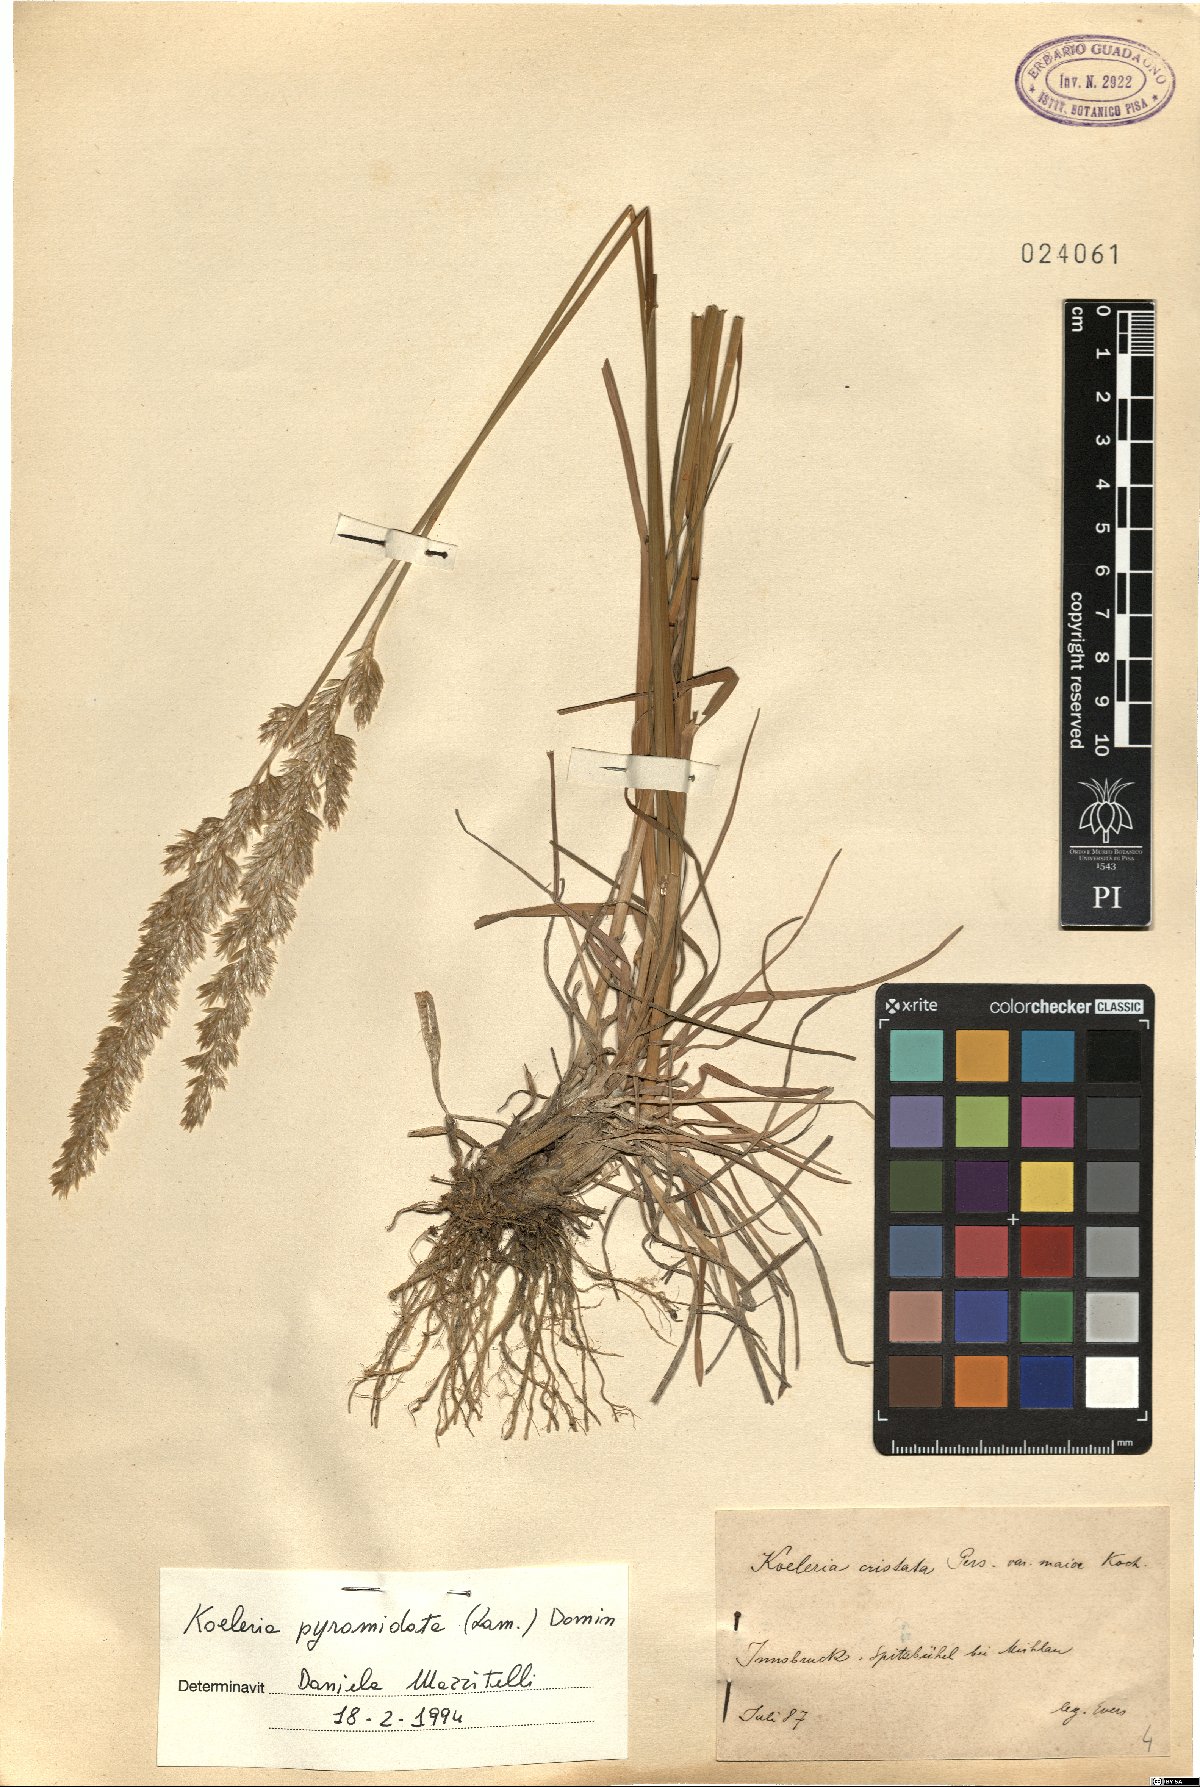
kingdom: Plantae
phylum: Tracheophyta
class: Liliopsida
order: Poales
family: Poaceae
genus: Koeleria
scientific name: Koeleria pyramidata
